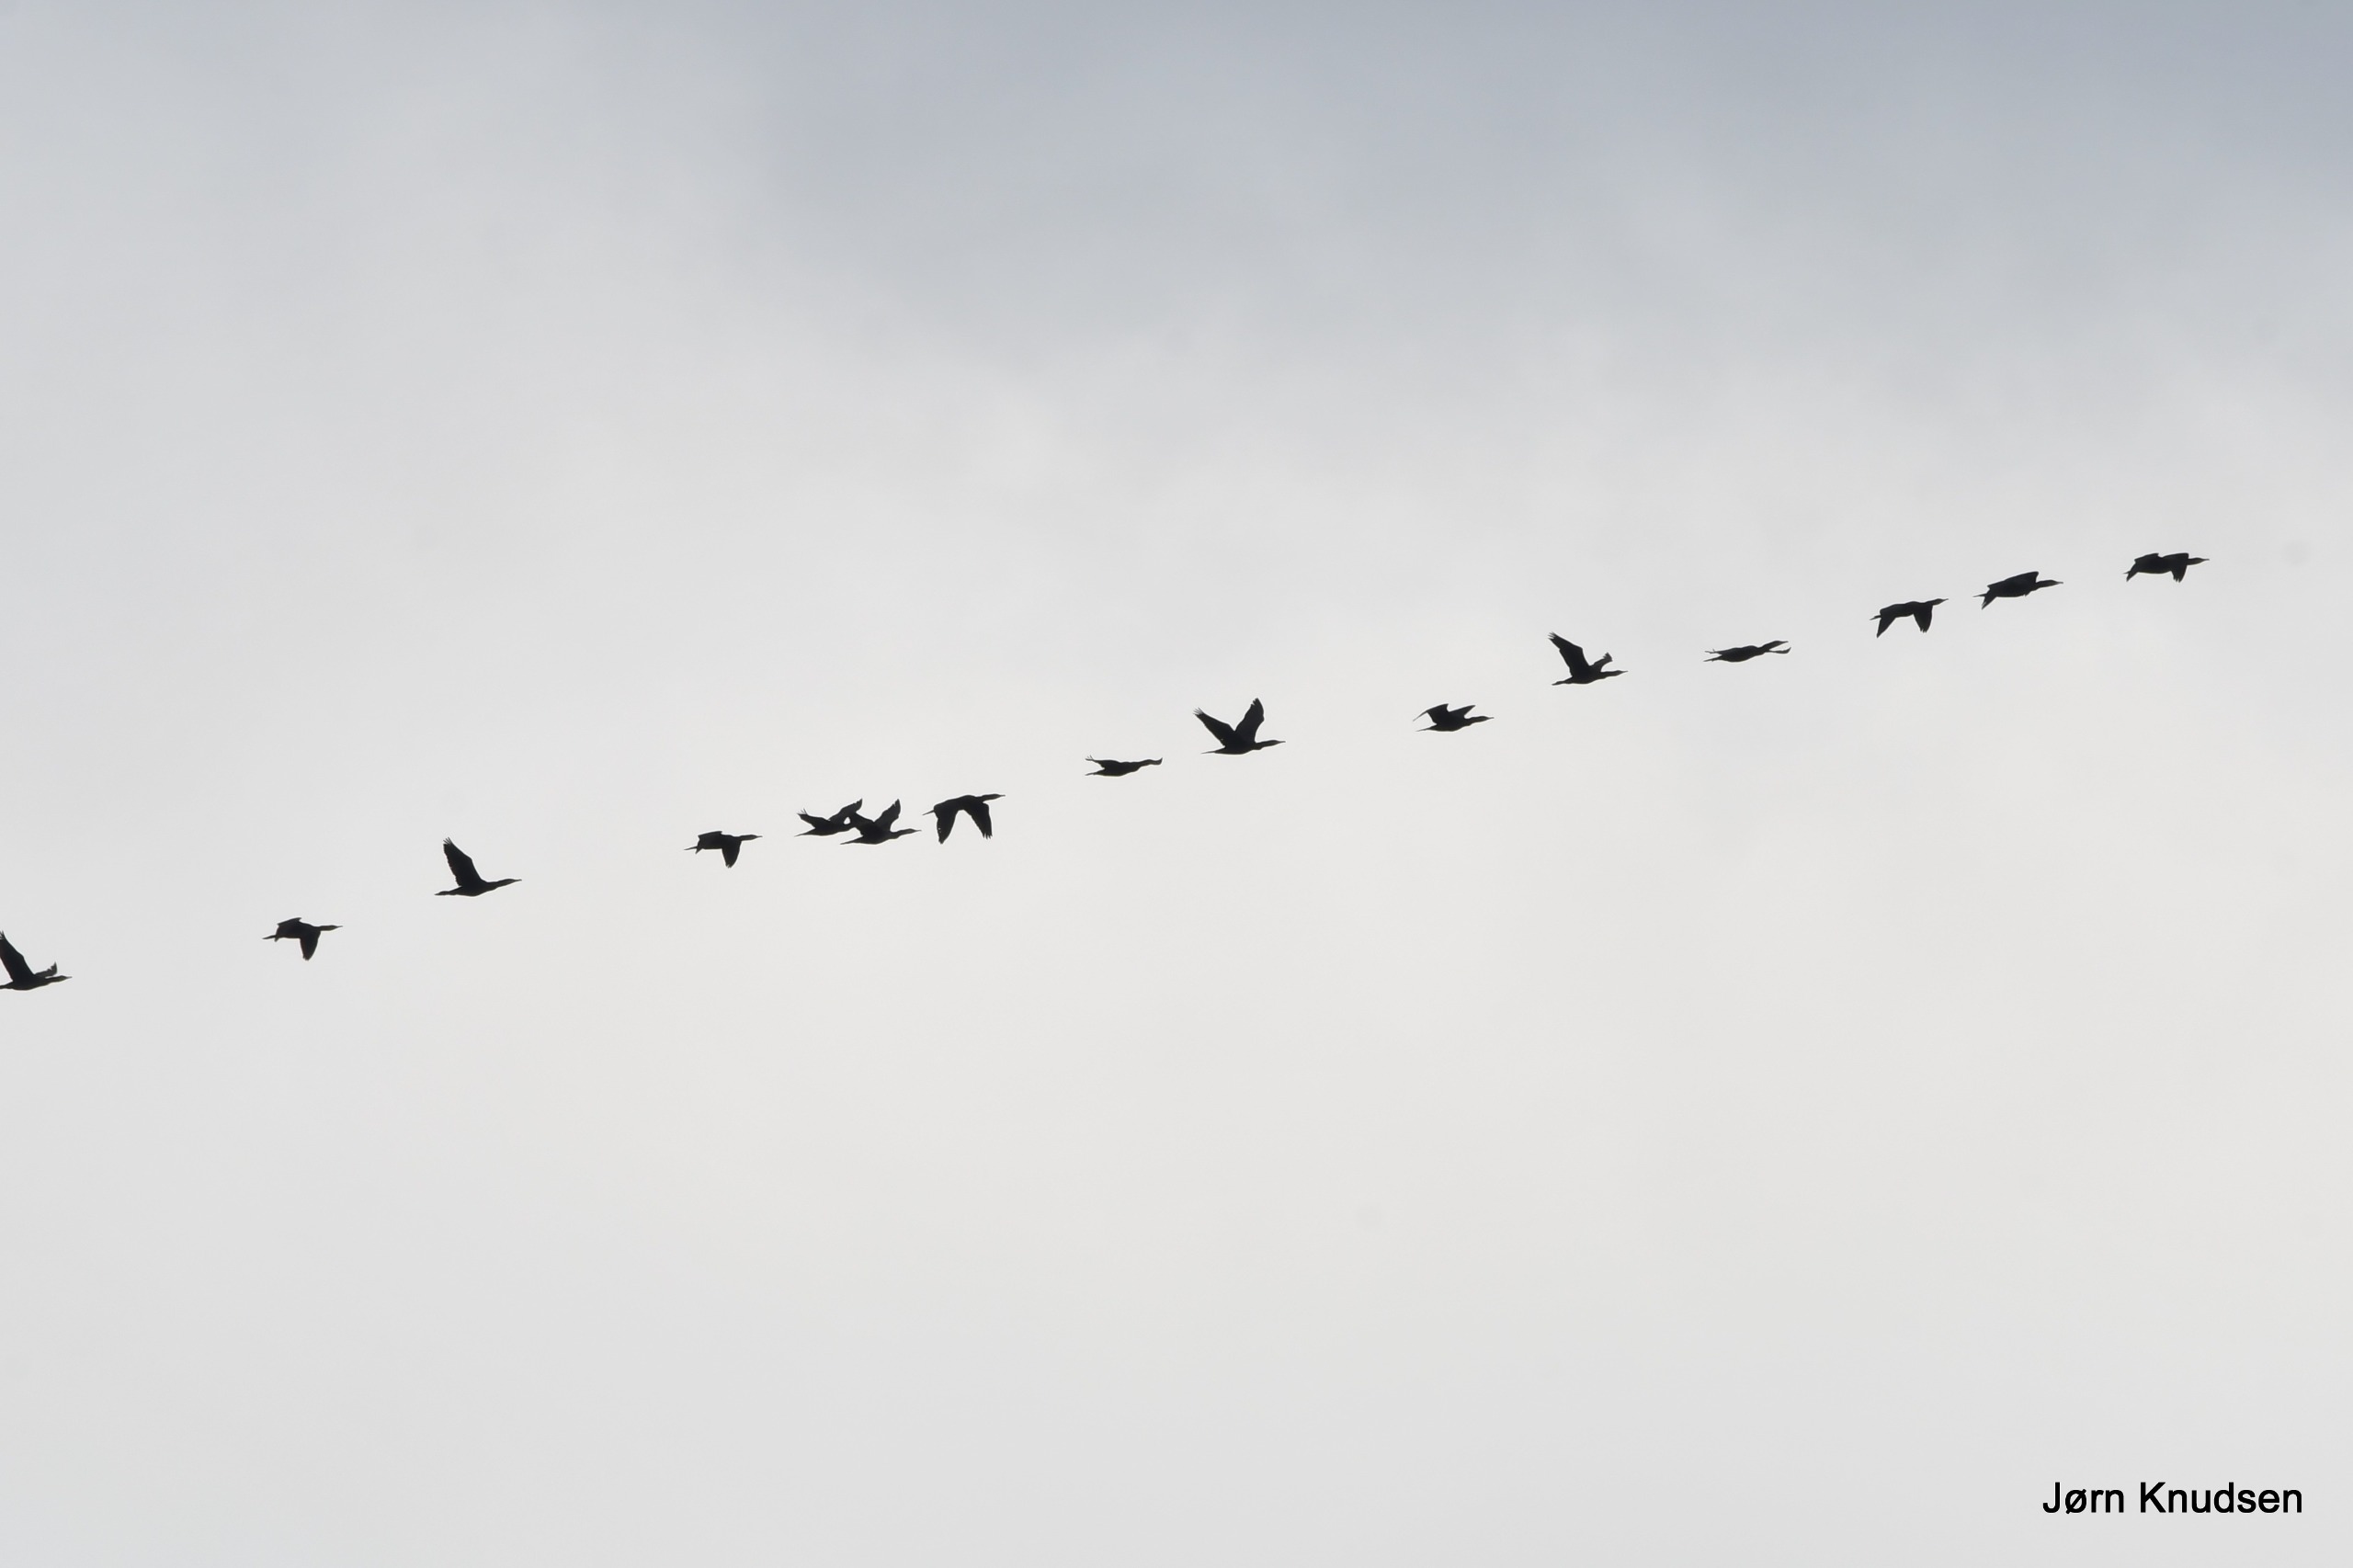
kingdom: Animalia
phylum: Chordata
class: Aves
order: Suliformes
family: Phalacrocoracidae
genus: Phalacrocorax
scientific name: Phalacrocorax carbo
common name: Skarv
